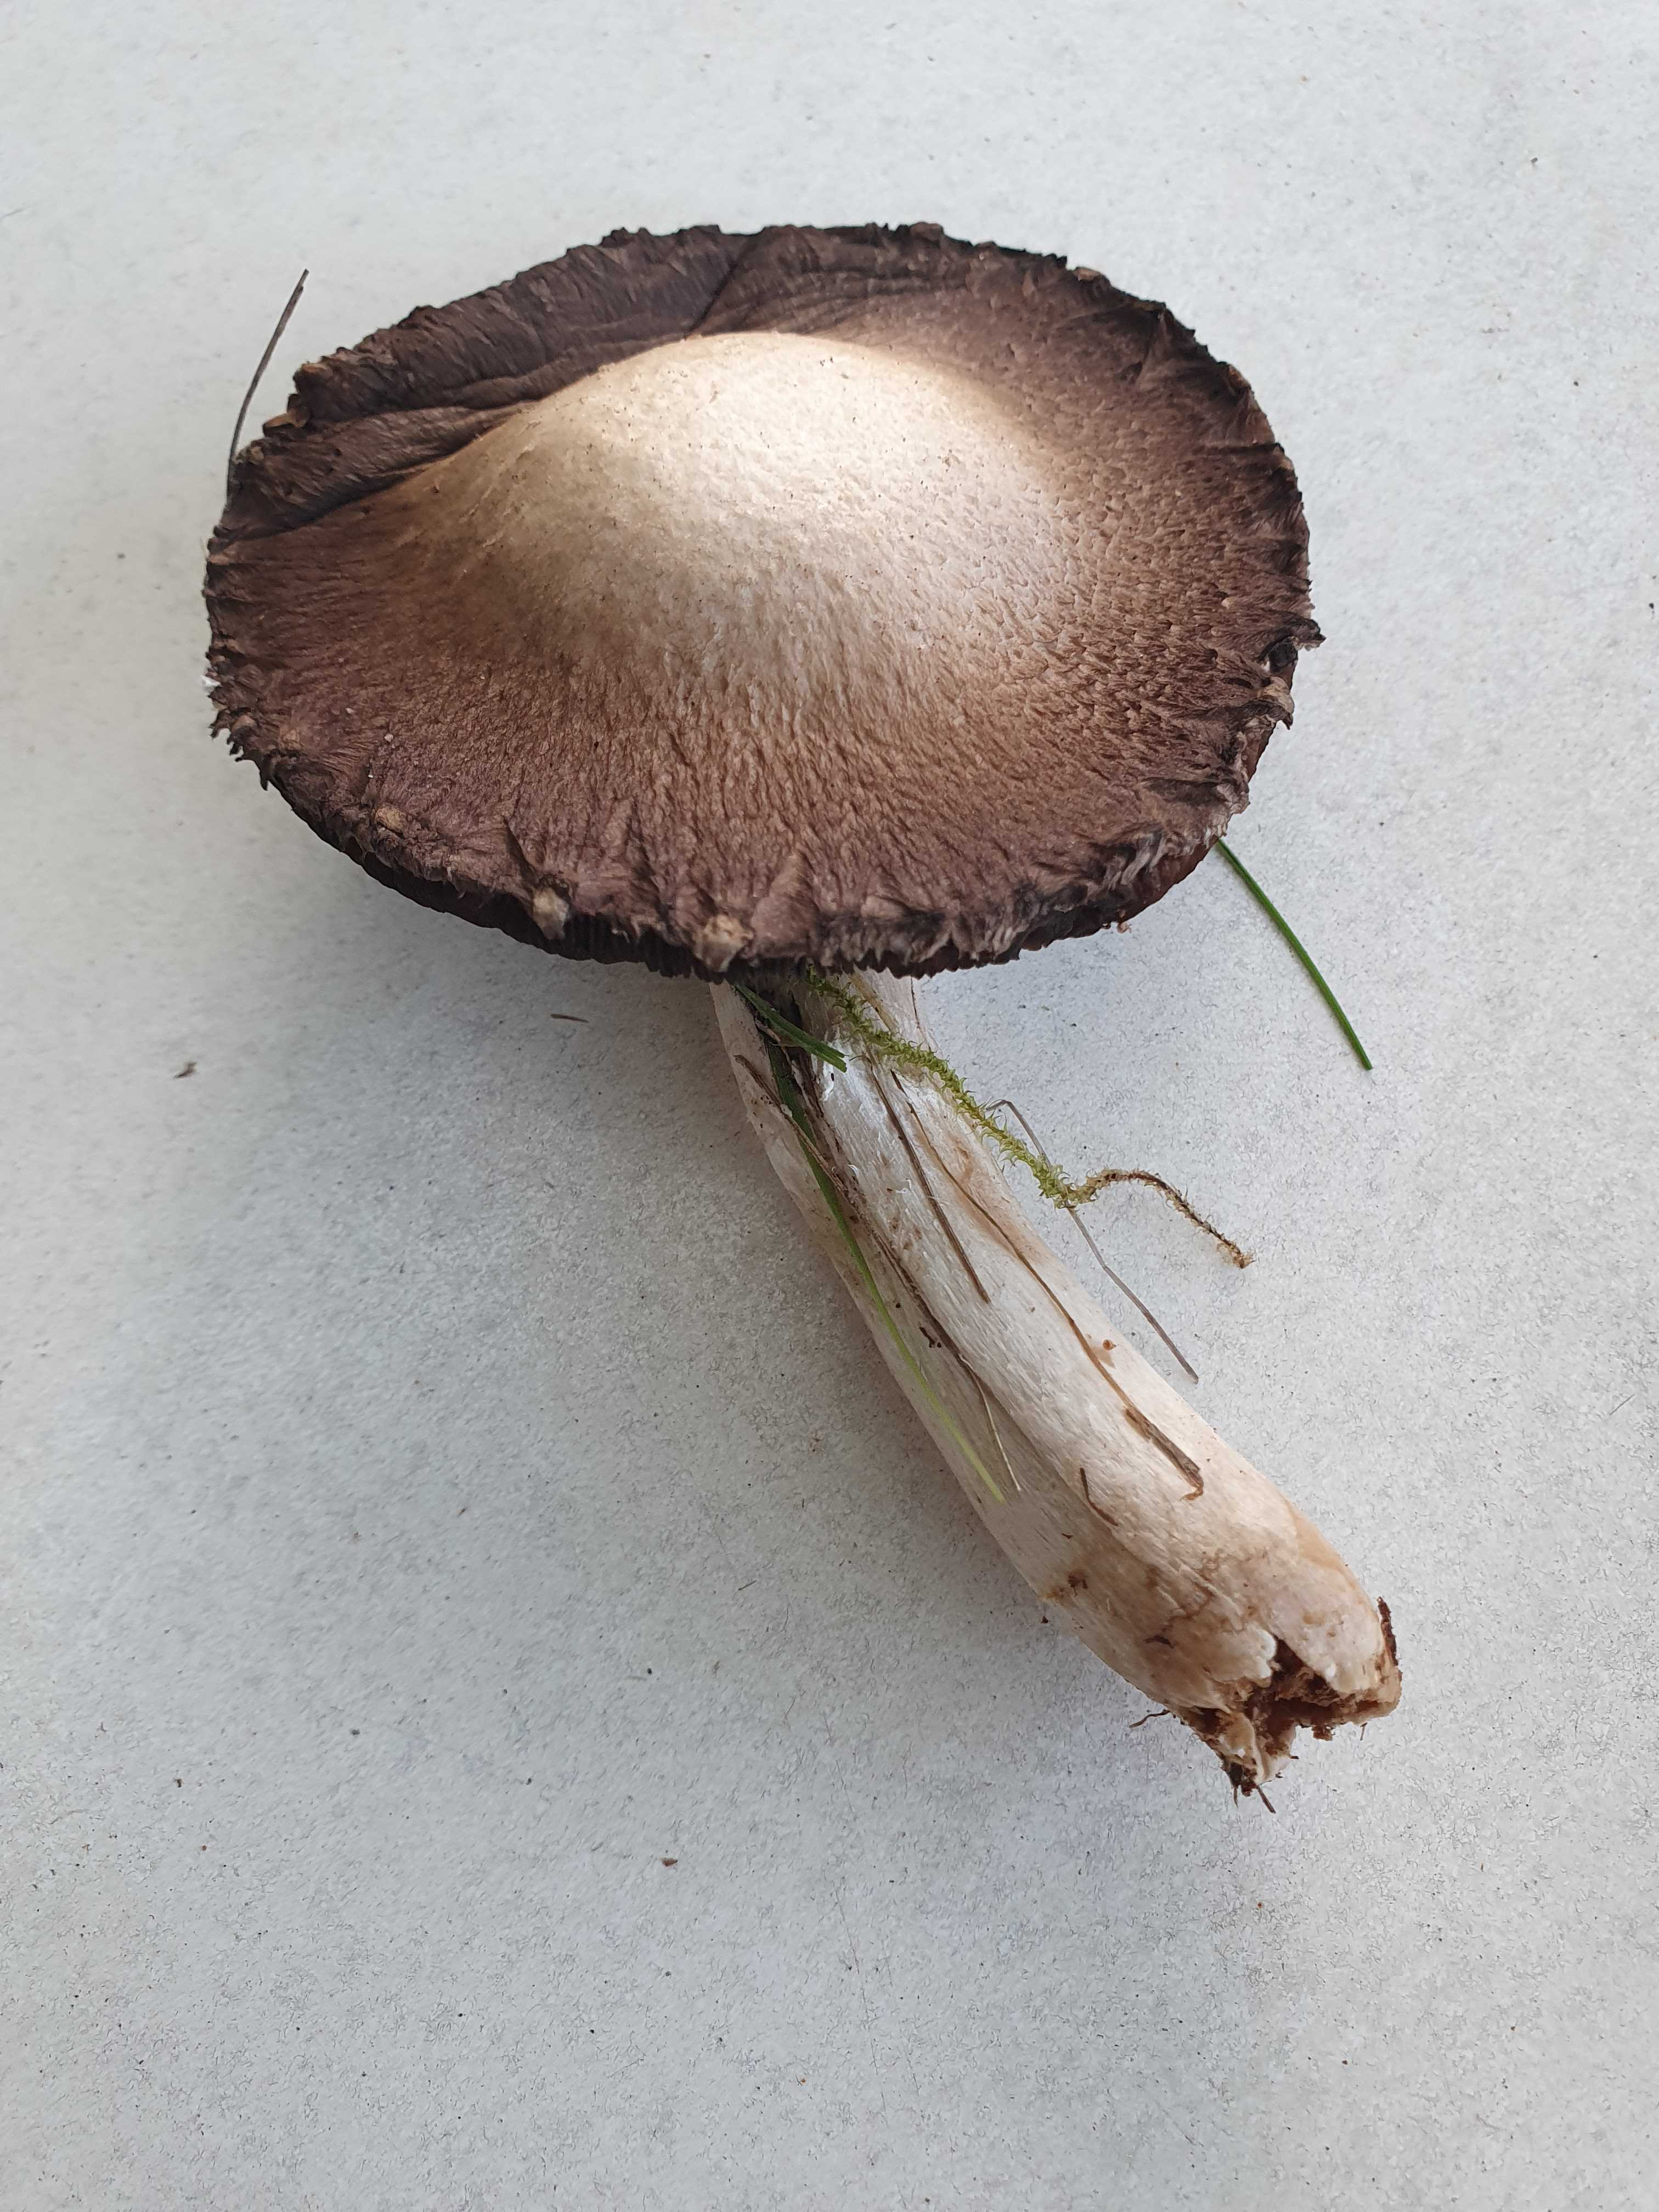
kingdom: Fungi
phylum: Basidiomycota
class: Agaricomycetes
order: Agaricales
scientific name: Agaricales
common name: champignonordenen
